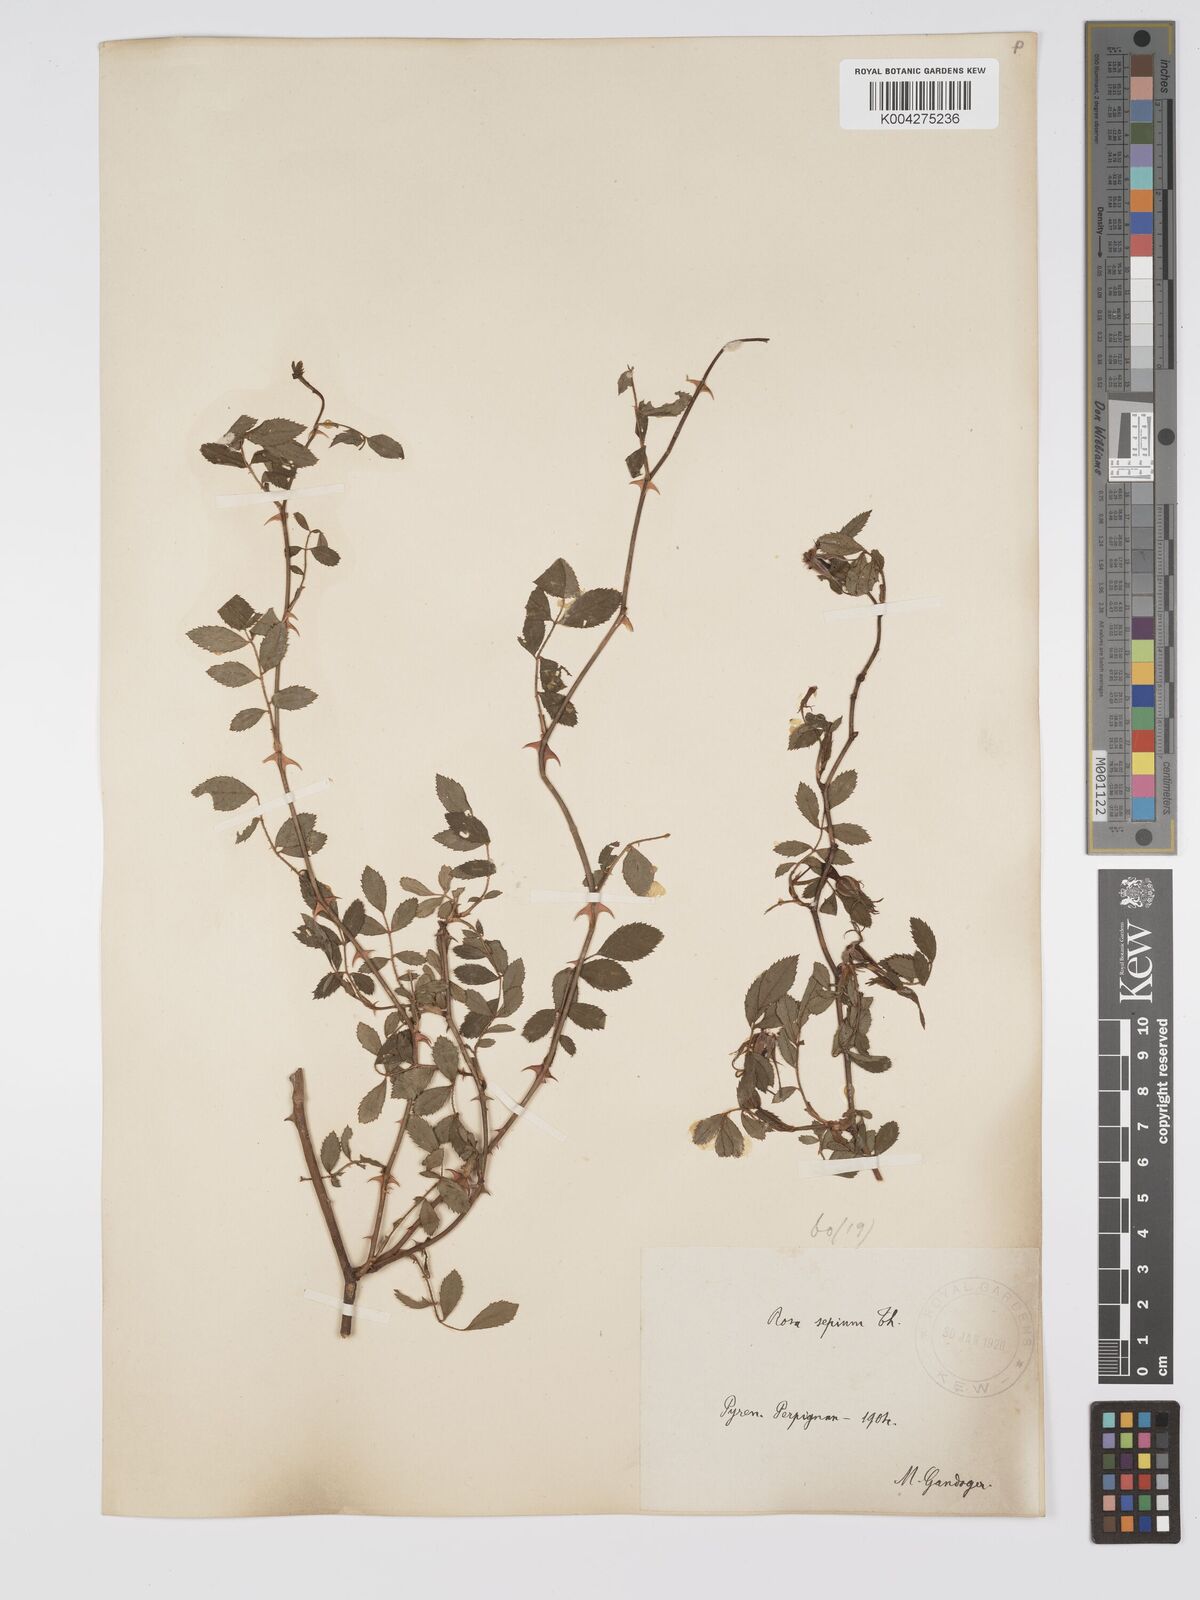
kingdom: Plantae
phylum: Tracheophyta
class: Magnoliopsida
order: Rosales
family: Rosaceae
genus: Rosa
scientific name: Rosa
